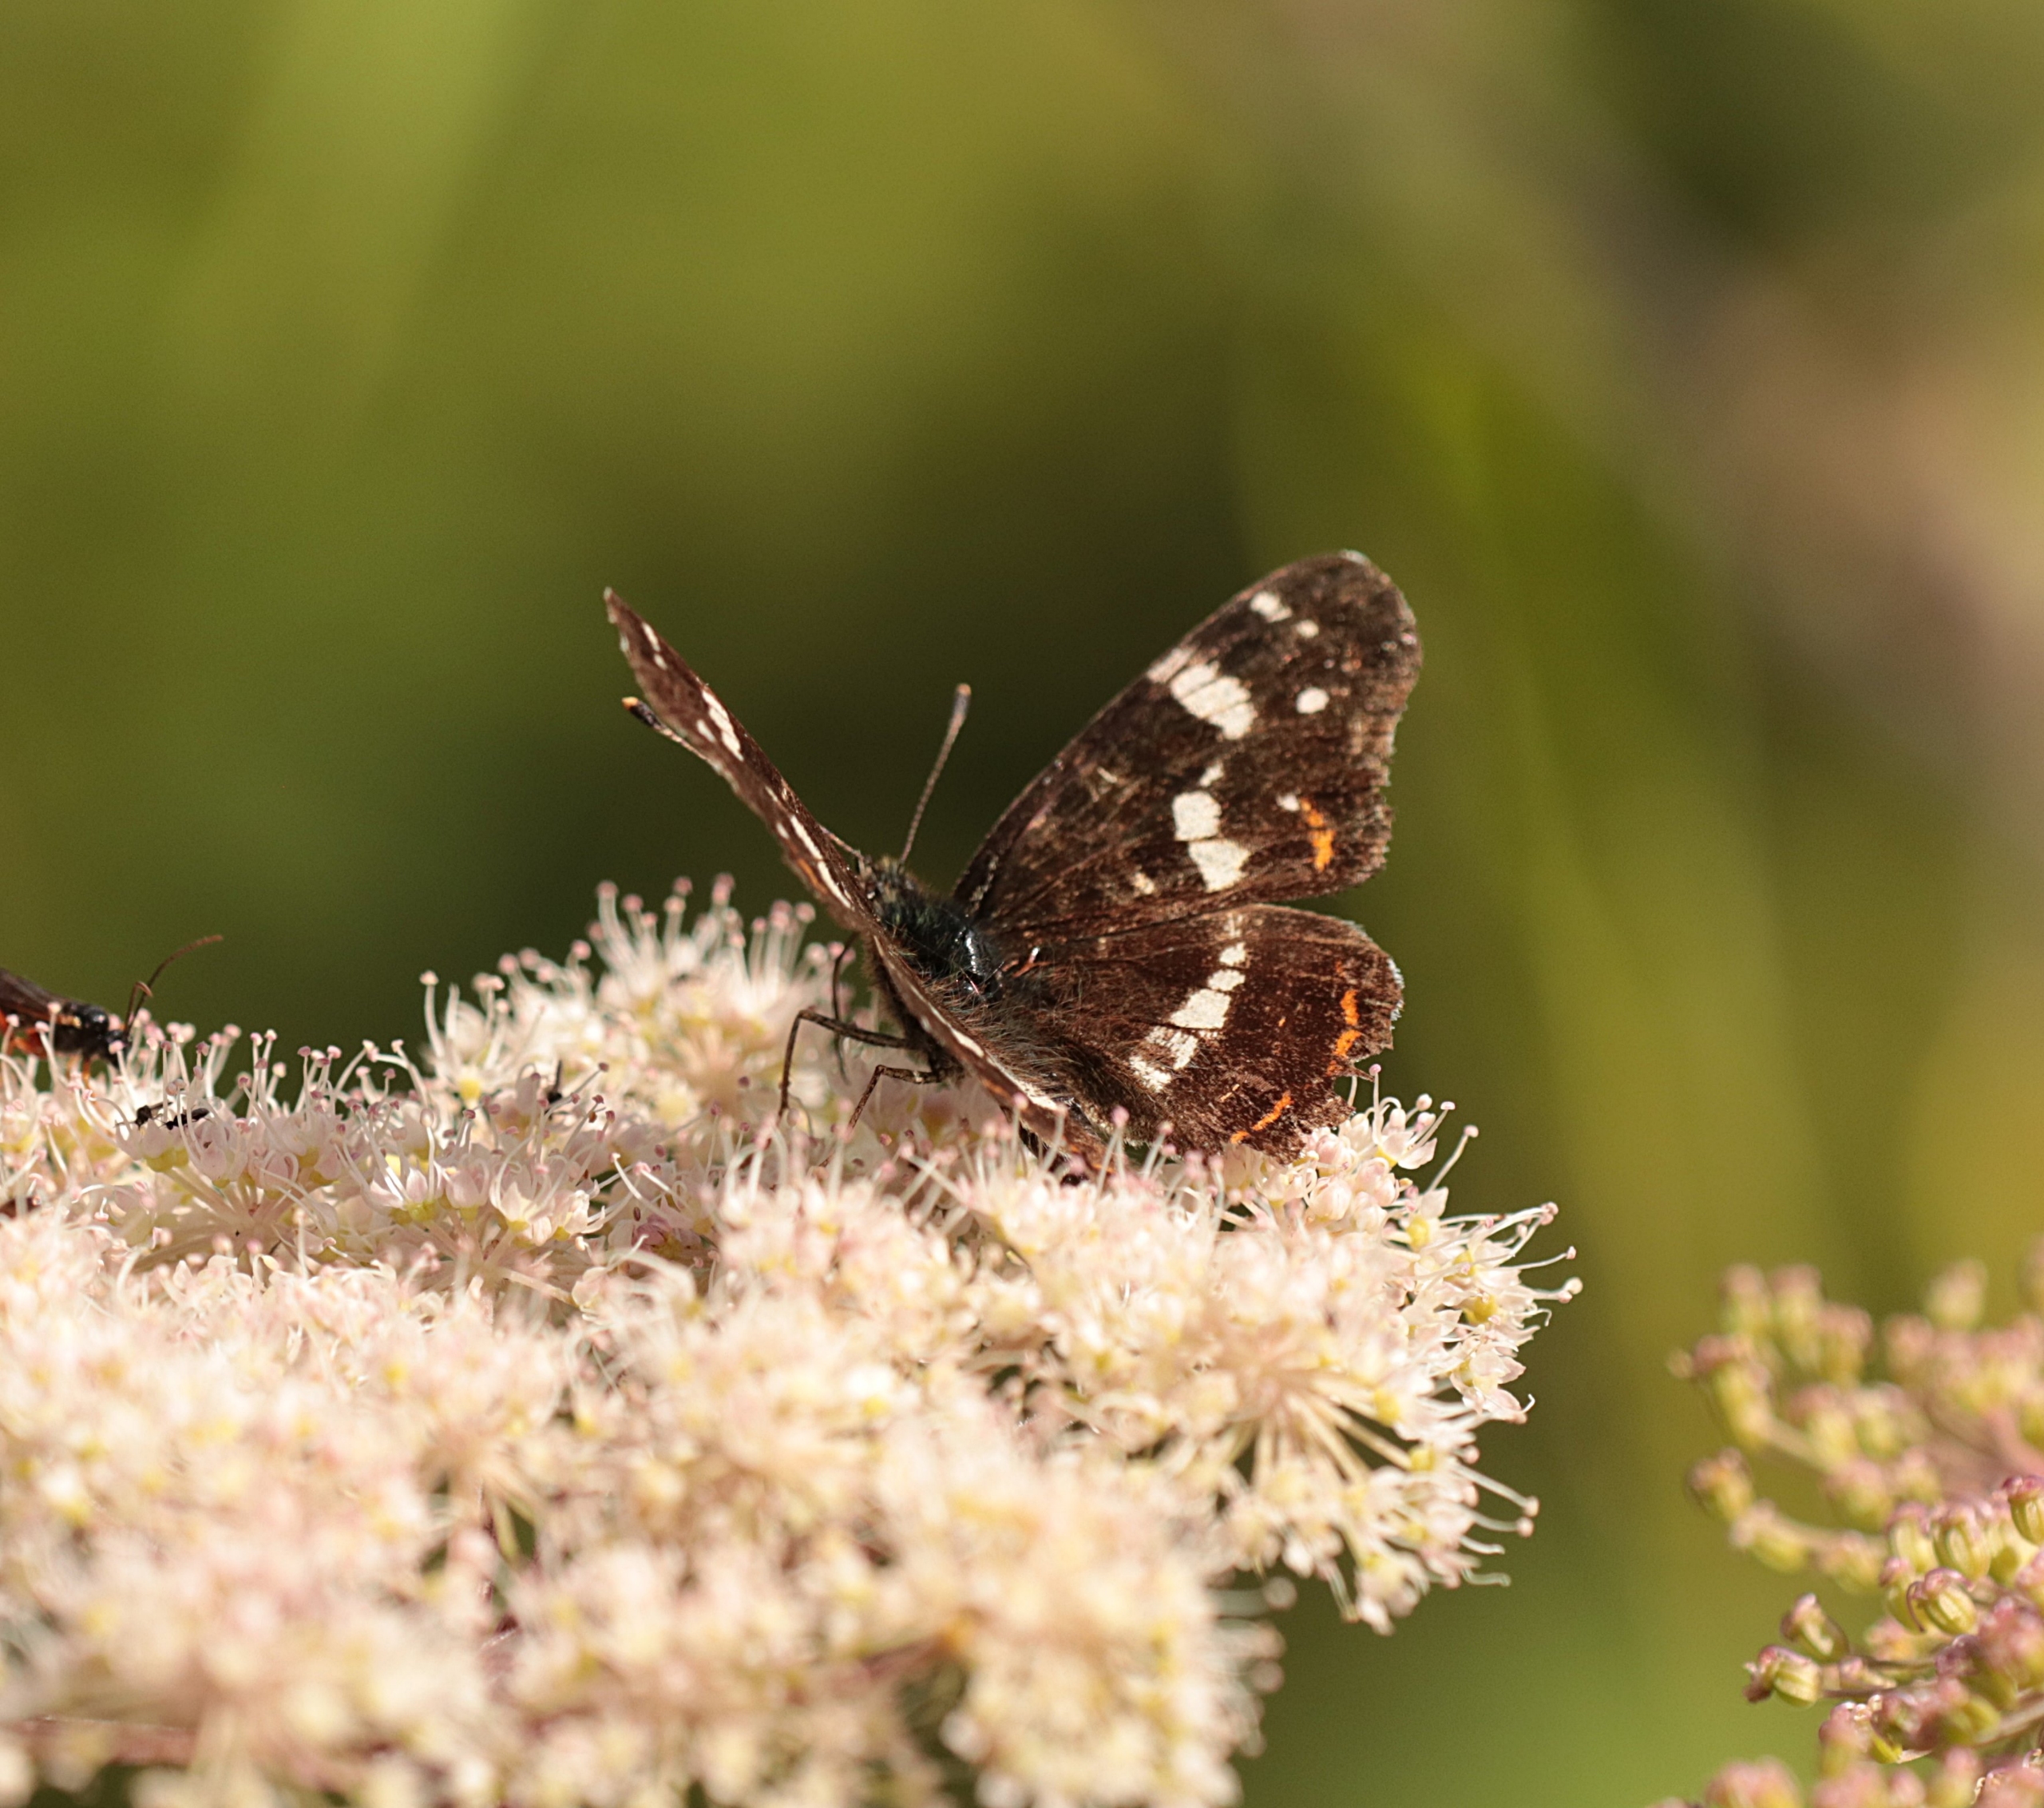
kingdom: Animalia
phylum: Arthropoda
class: Insecta
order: Lepidoptera
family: Nymphalidae
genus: Araschnia
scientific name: Araschnia levana
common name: Nældesommerfugl
